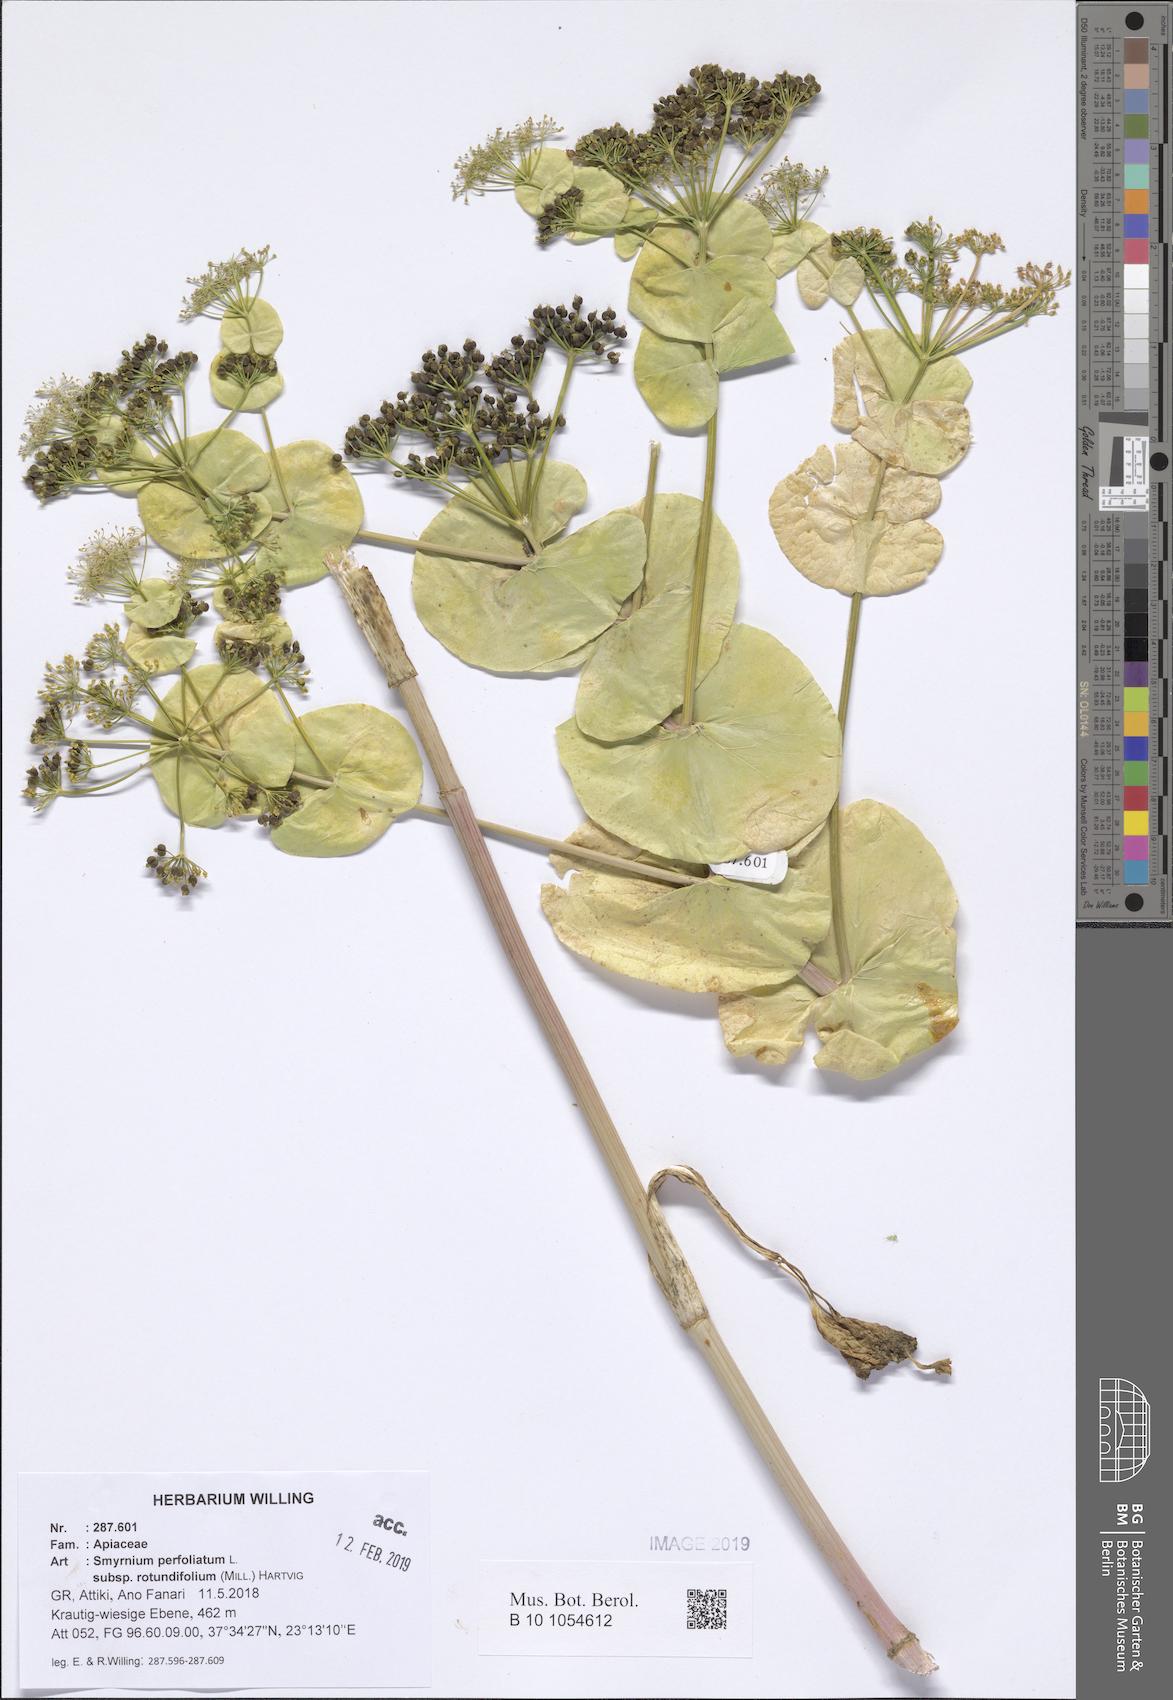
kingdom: Plantae
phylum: Tracheophyta
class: Magnoliopsida
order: Apiales
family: Apiaceae
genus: Smyrnium
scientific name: Smyrnium perfoliatum
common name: Perfoliate alexanders
